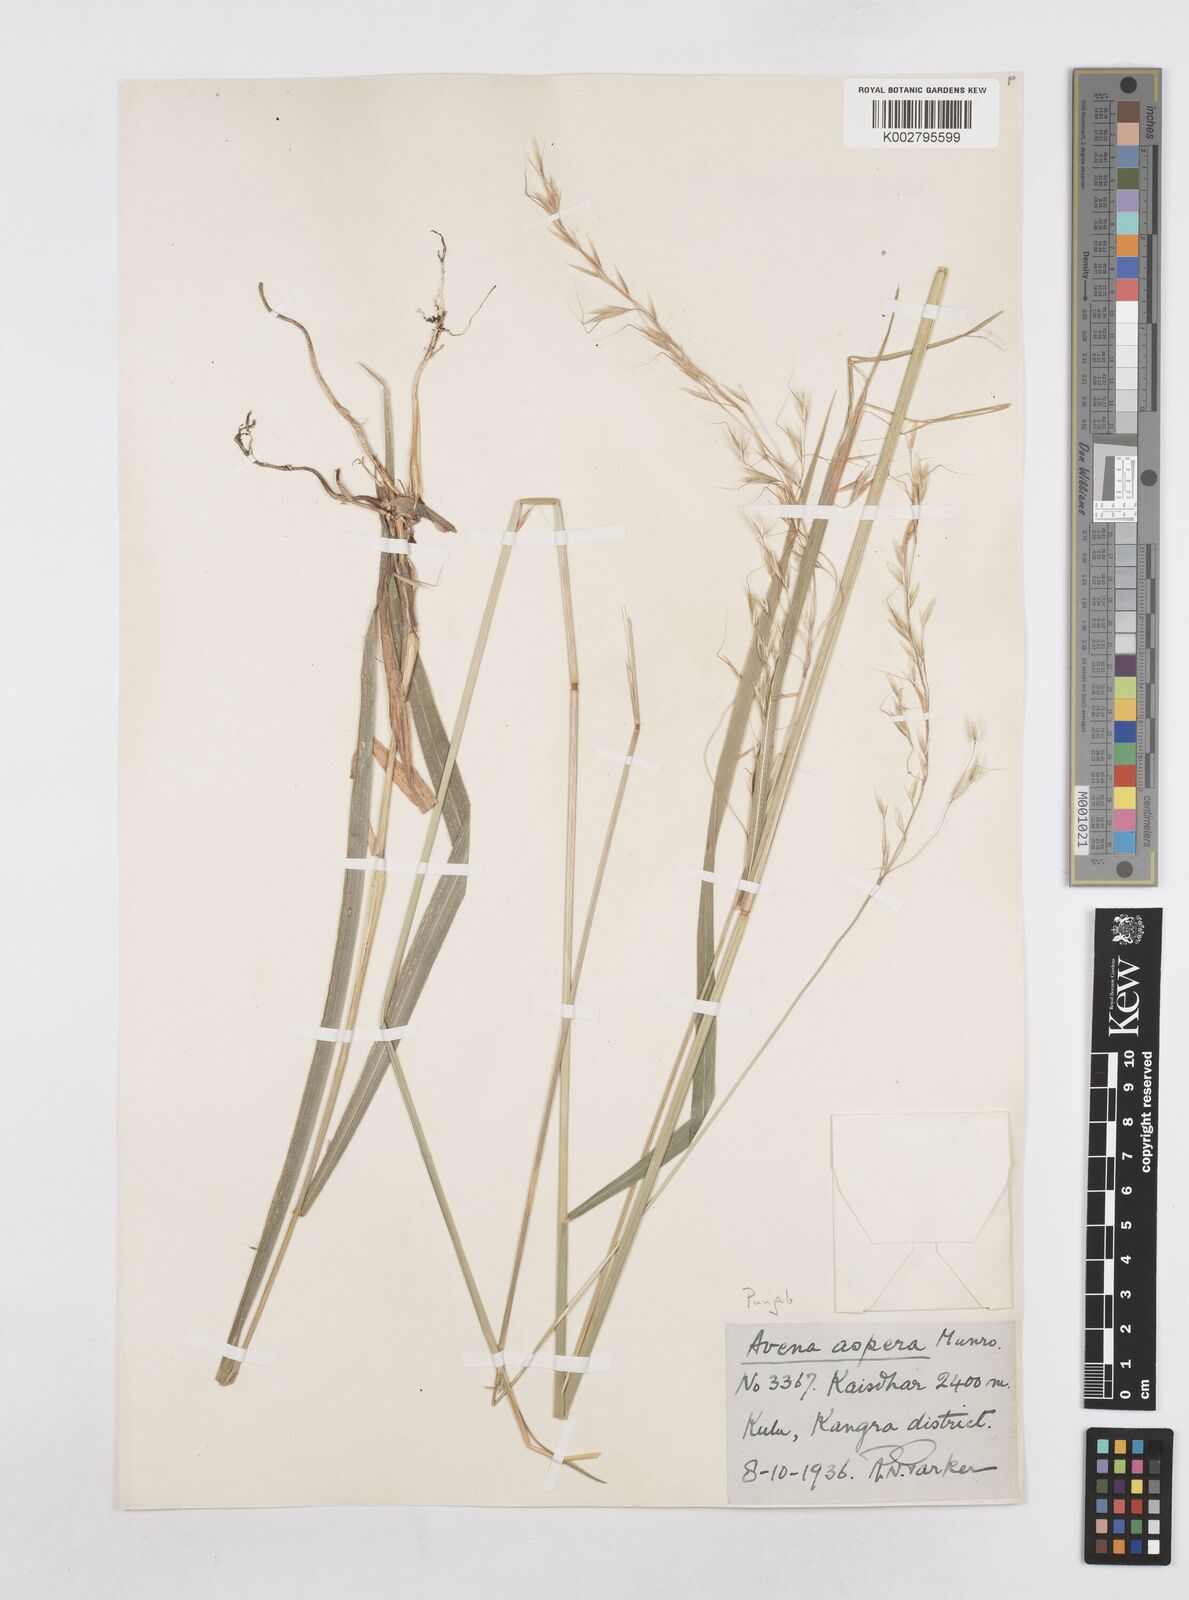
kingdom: Plantae
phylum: Tracheophyta
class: Liliopsida
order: Poales
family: Poaceae
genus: Helictotrichon
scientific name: Helictotrichon
